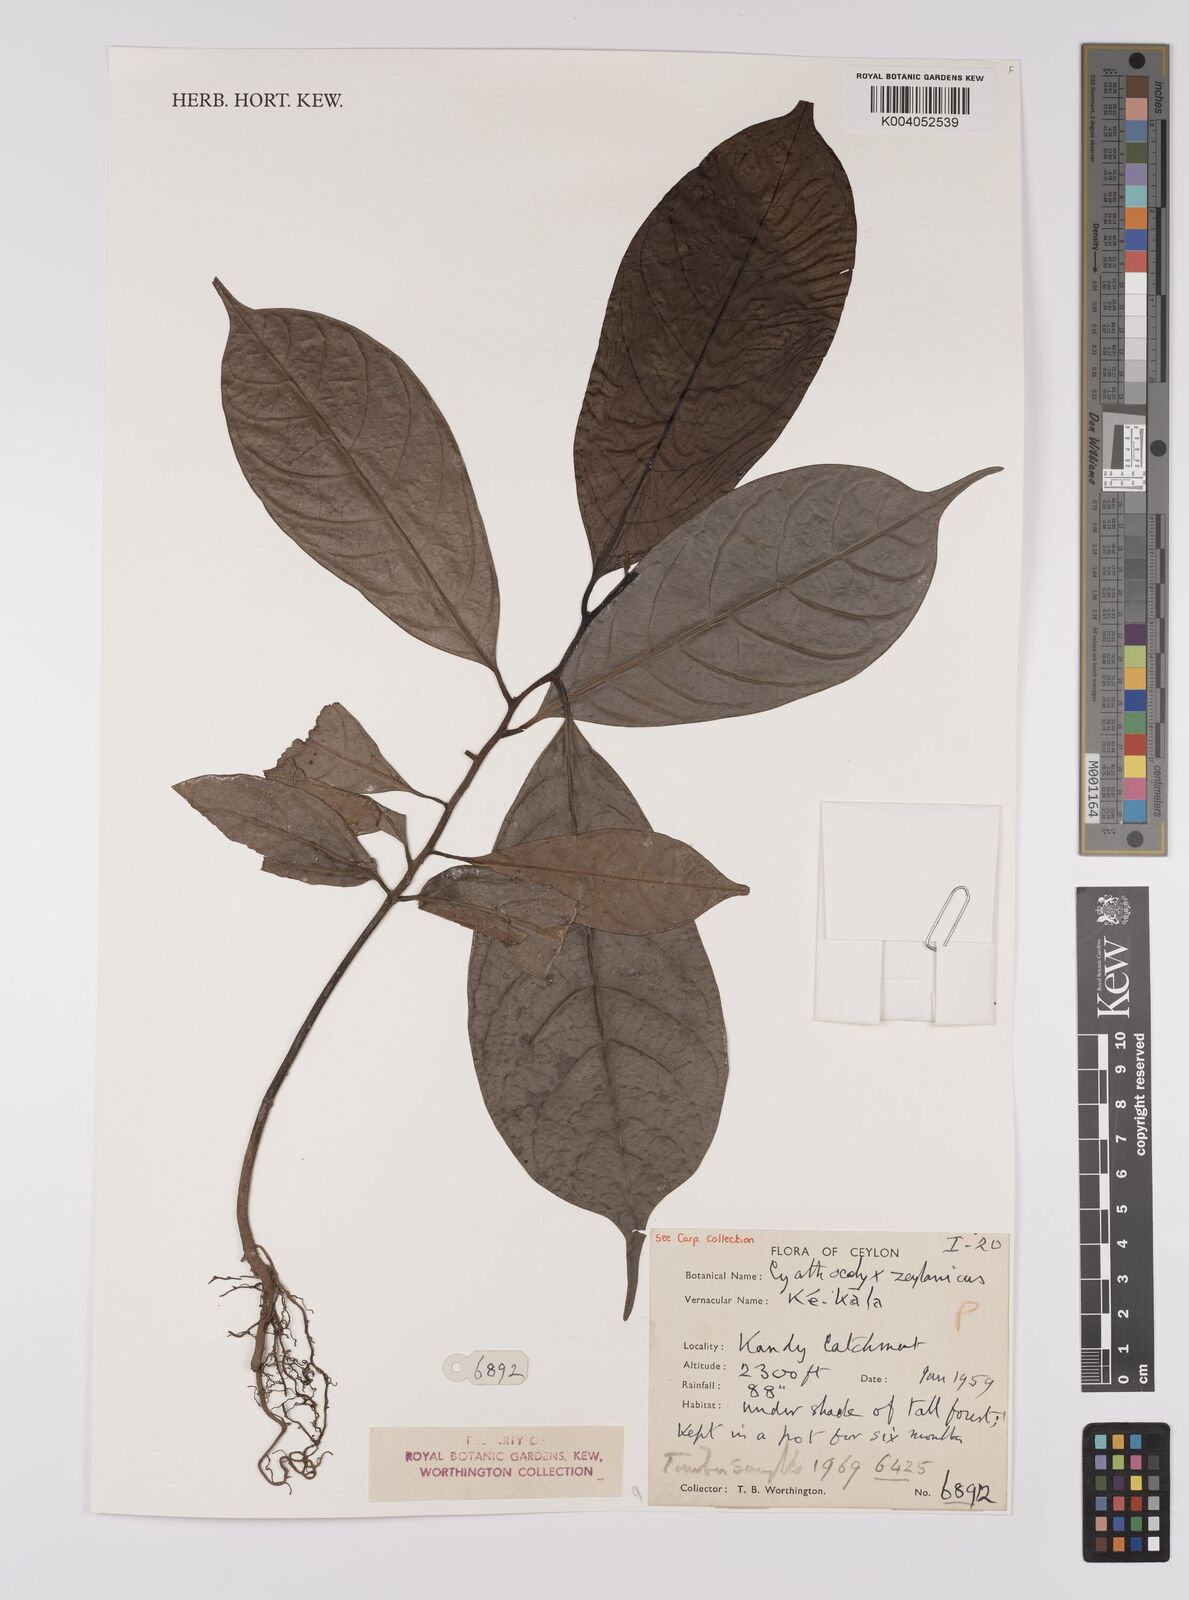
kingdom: Plantae
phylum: Tracheophyta
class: Magnoliopsida
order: Magnoliales
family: Annonaceae
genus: Cyathocalyx
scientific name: Cyathocalyx zeylanicus
